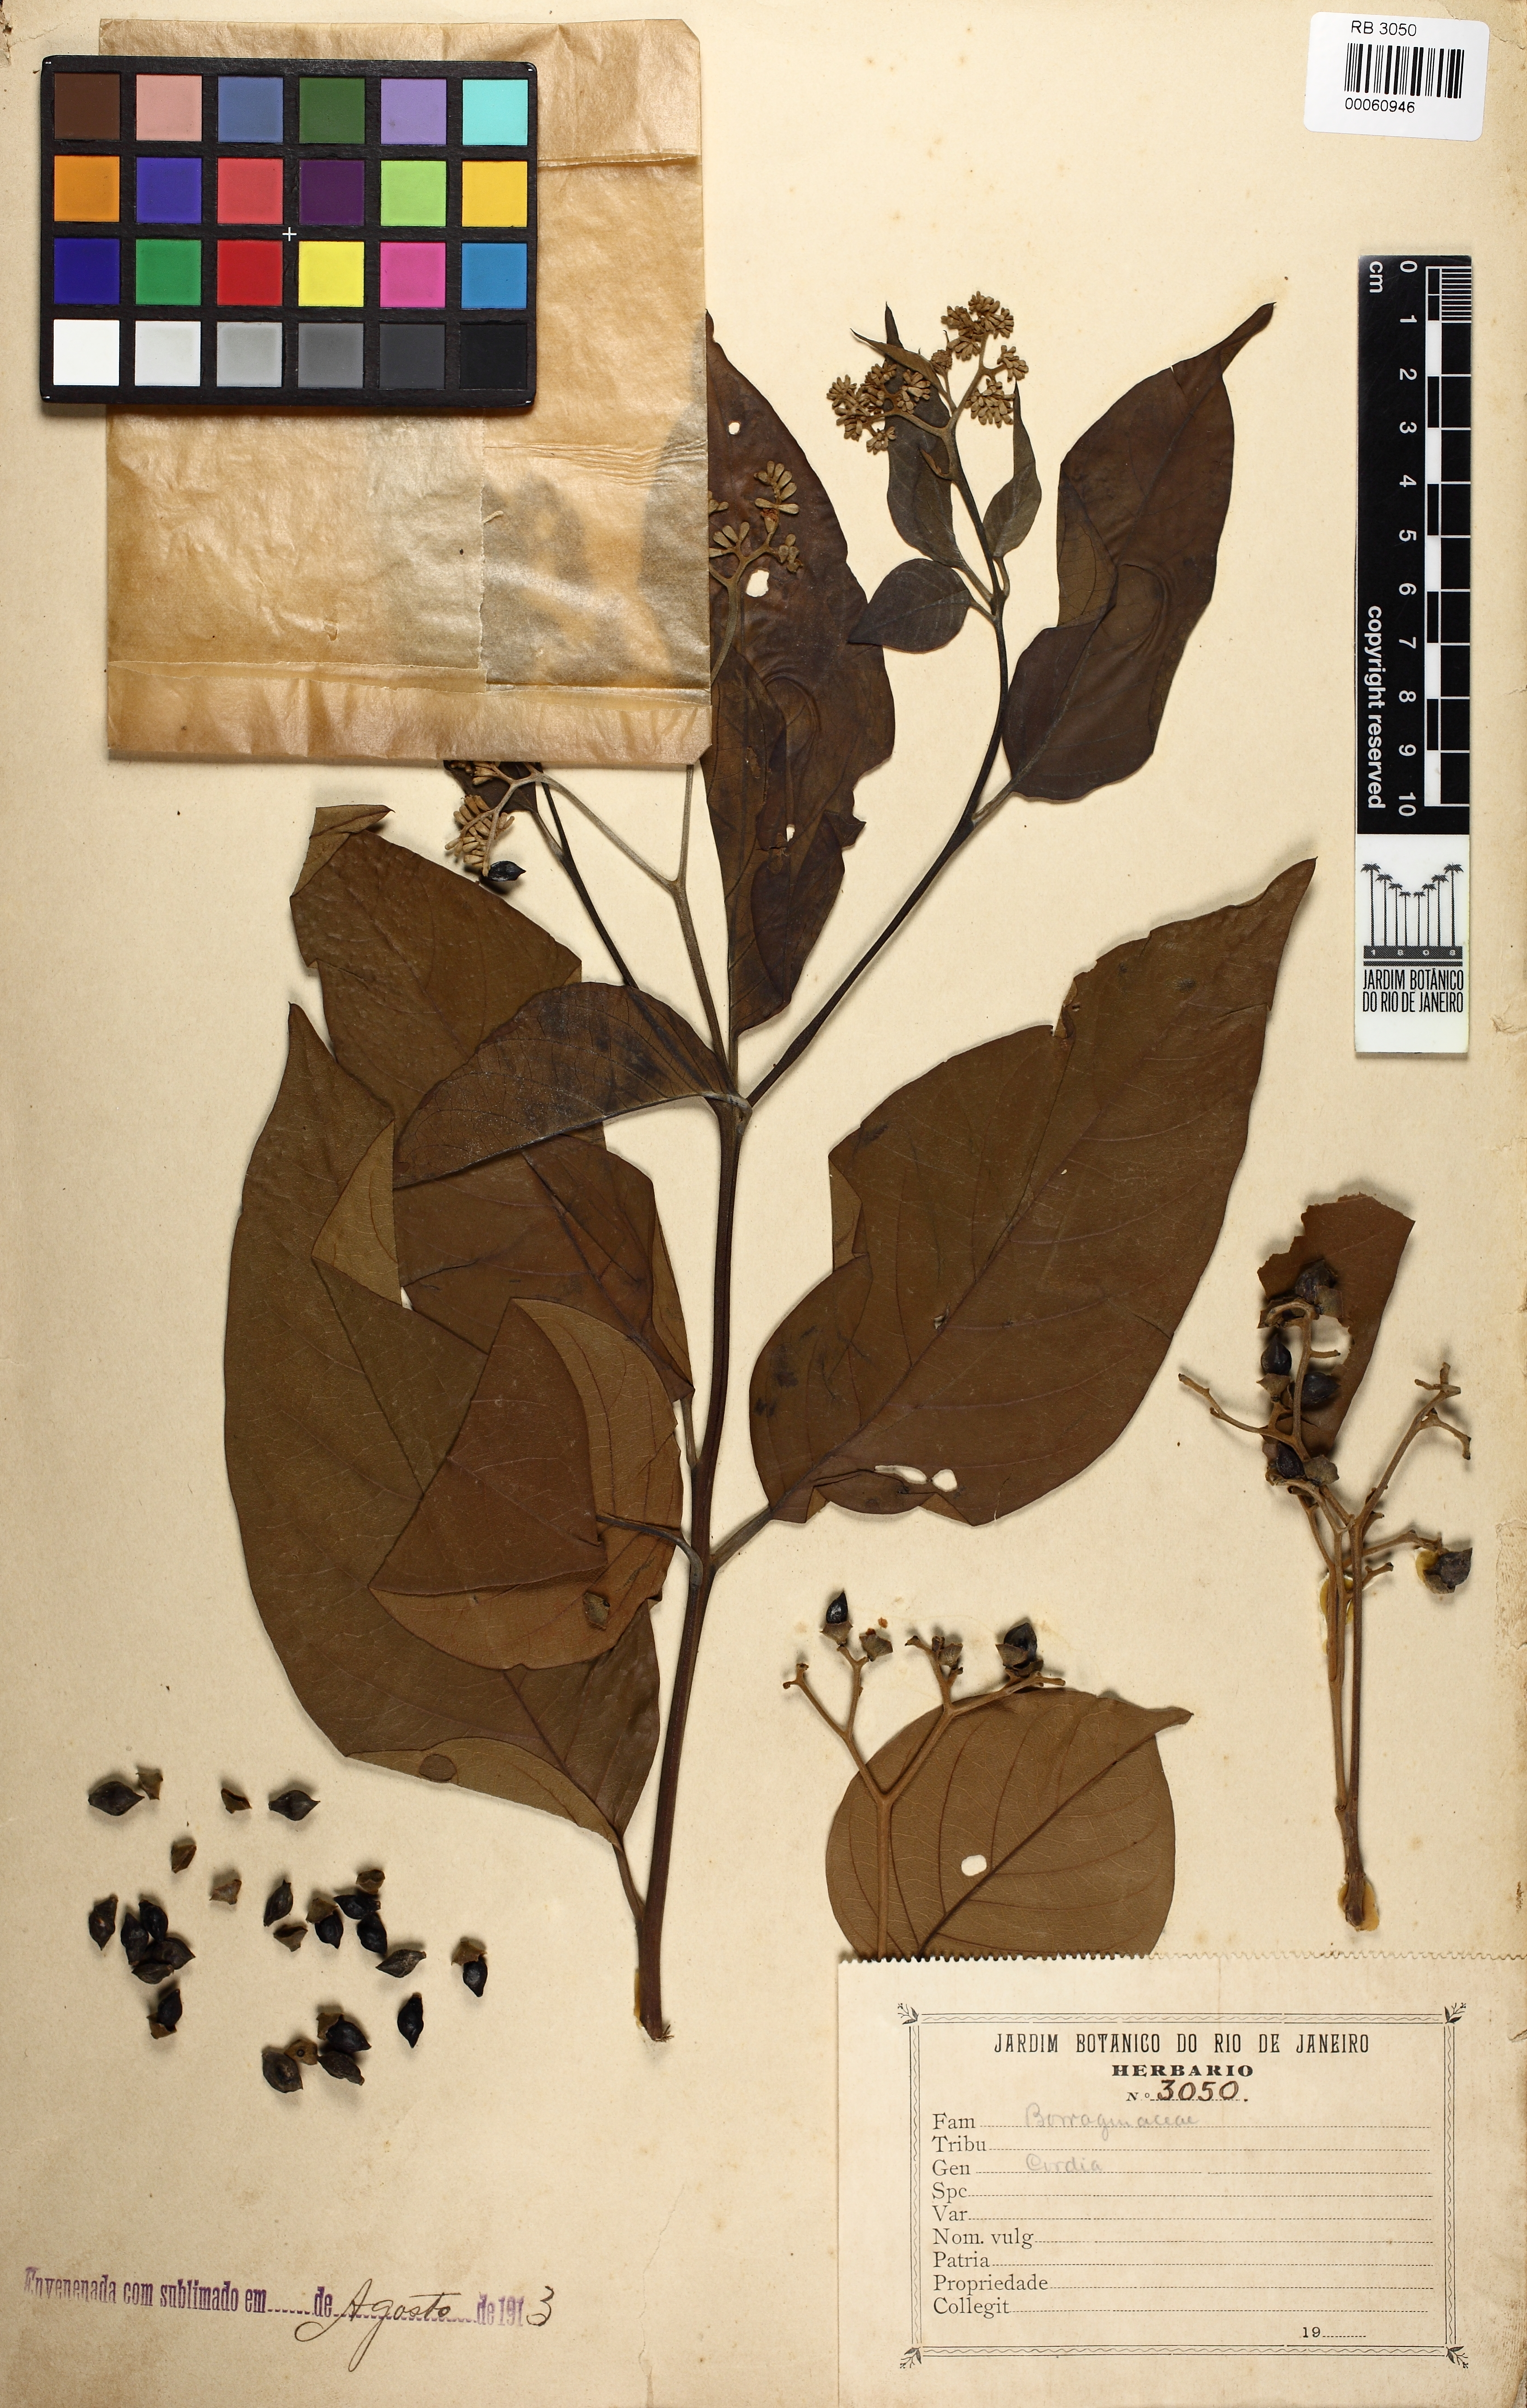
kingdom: Plantae
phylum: Tracheophyta
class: Magnoliopsida
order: Boraginales
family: Cordiaceae
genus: Cordia
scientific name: Cordia
